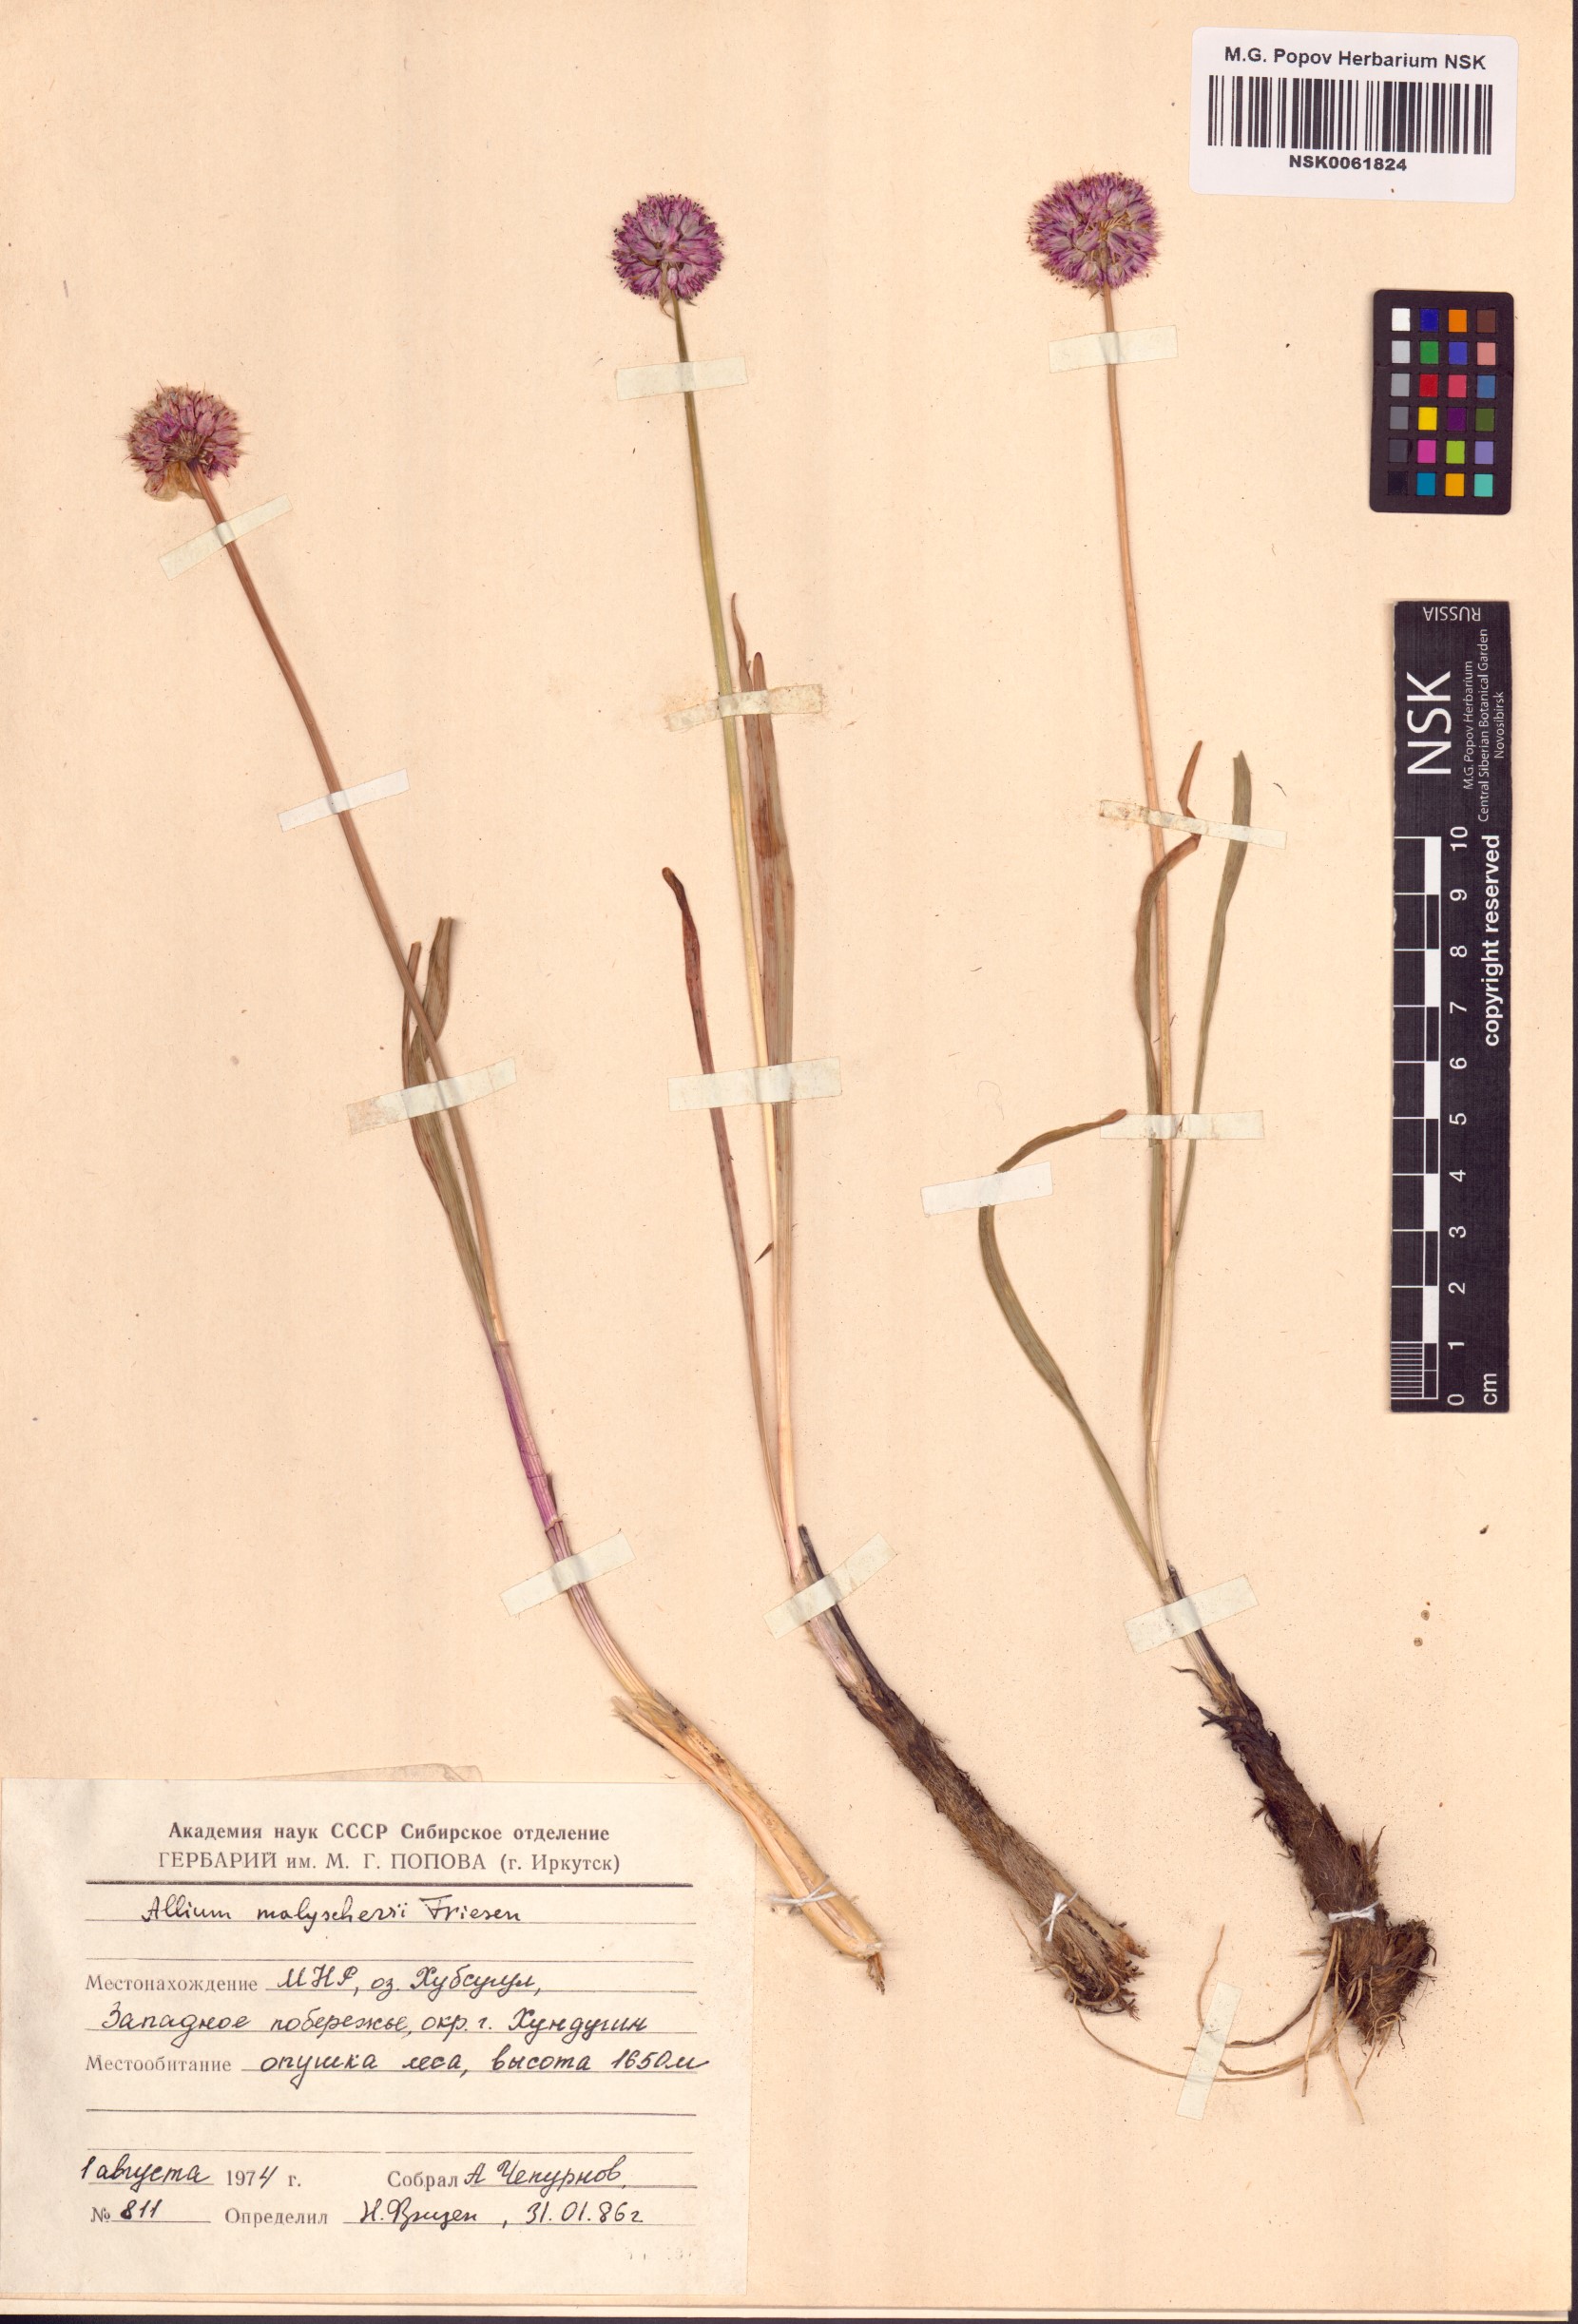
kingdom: Plantae
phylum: Tracheophyta
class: Liliopsida
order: Asparagales
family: Amaryllidaceae
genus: Allium
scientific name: Allium malyschevii
